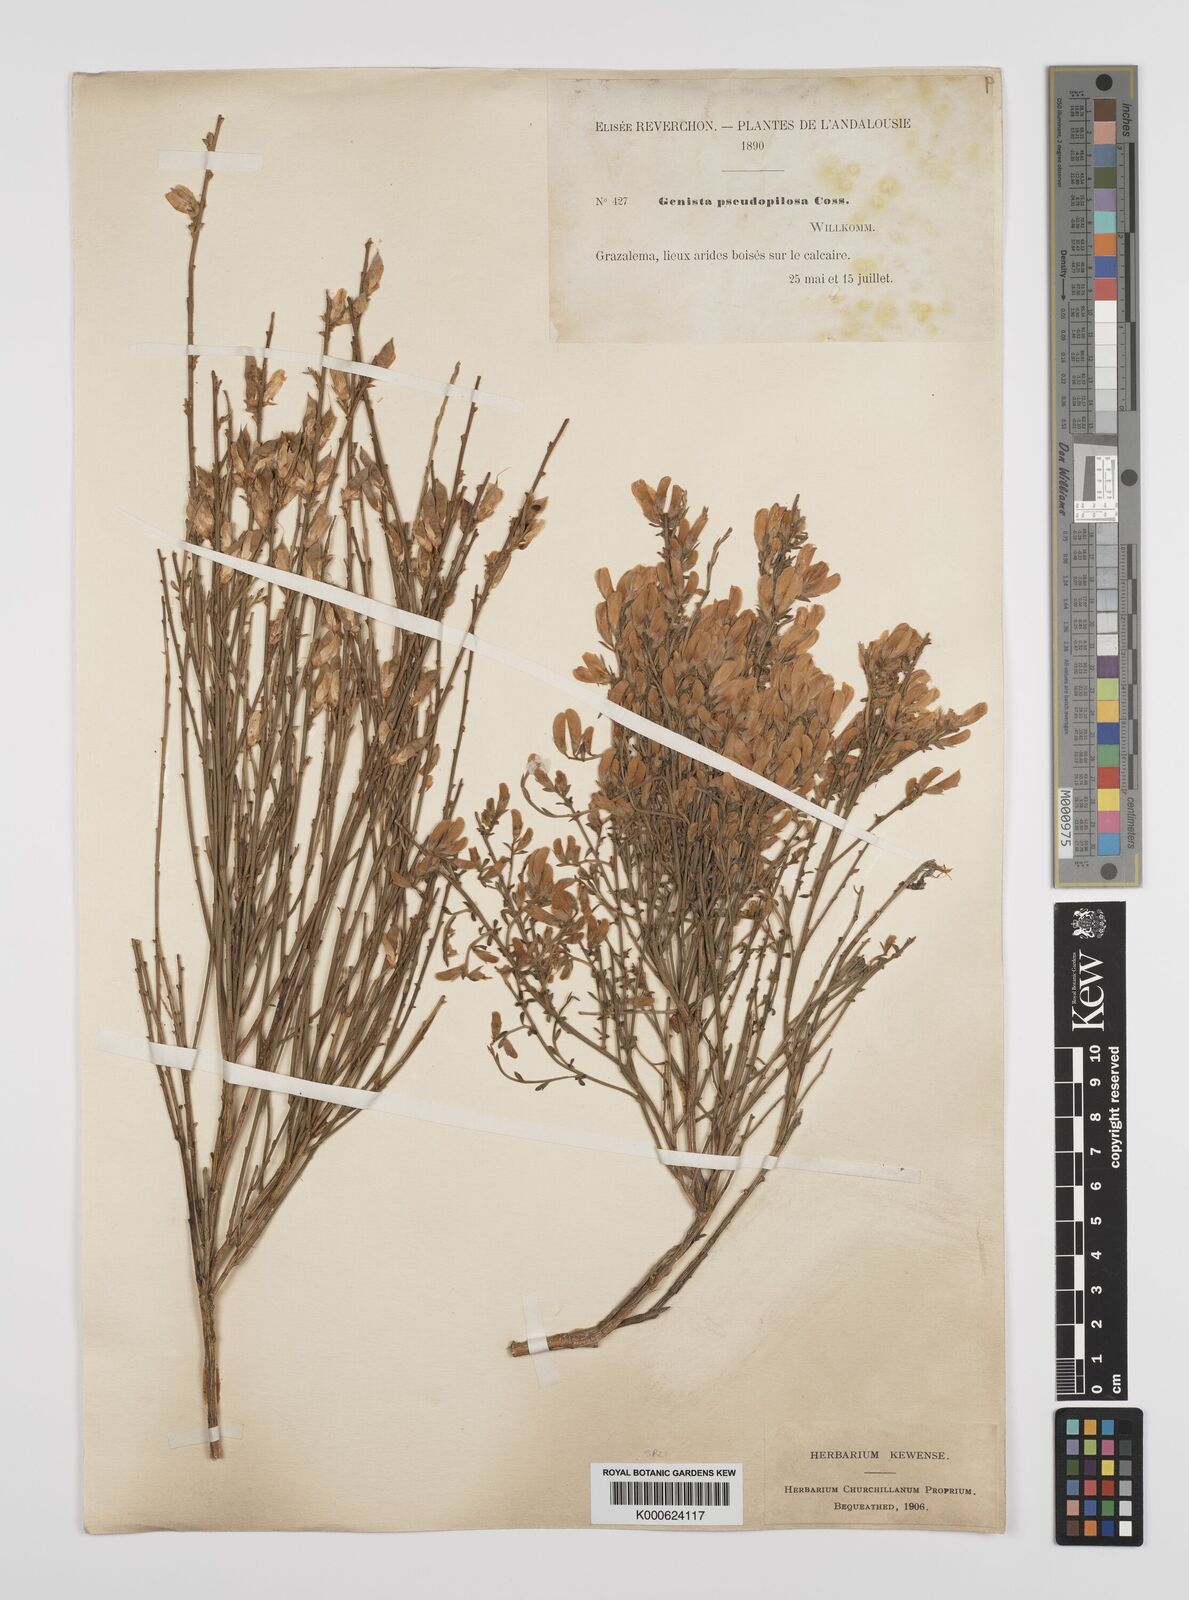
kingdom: Plantae
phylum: Tracheophyta
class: Magnoliopsida
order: Fabales
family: Fabaceae
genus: Genista
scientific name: Genista pseudopilosa
